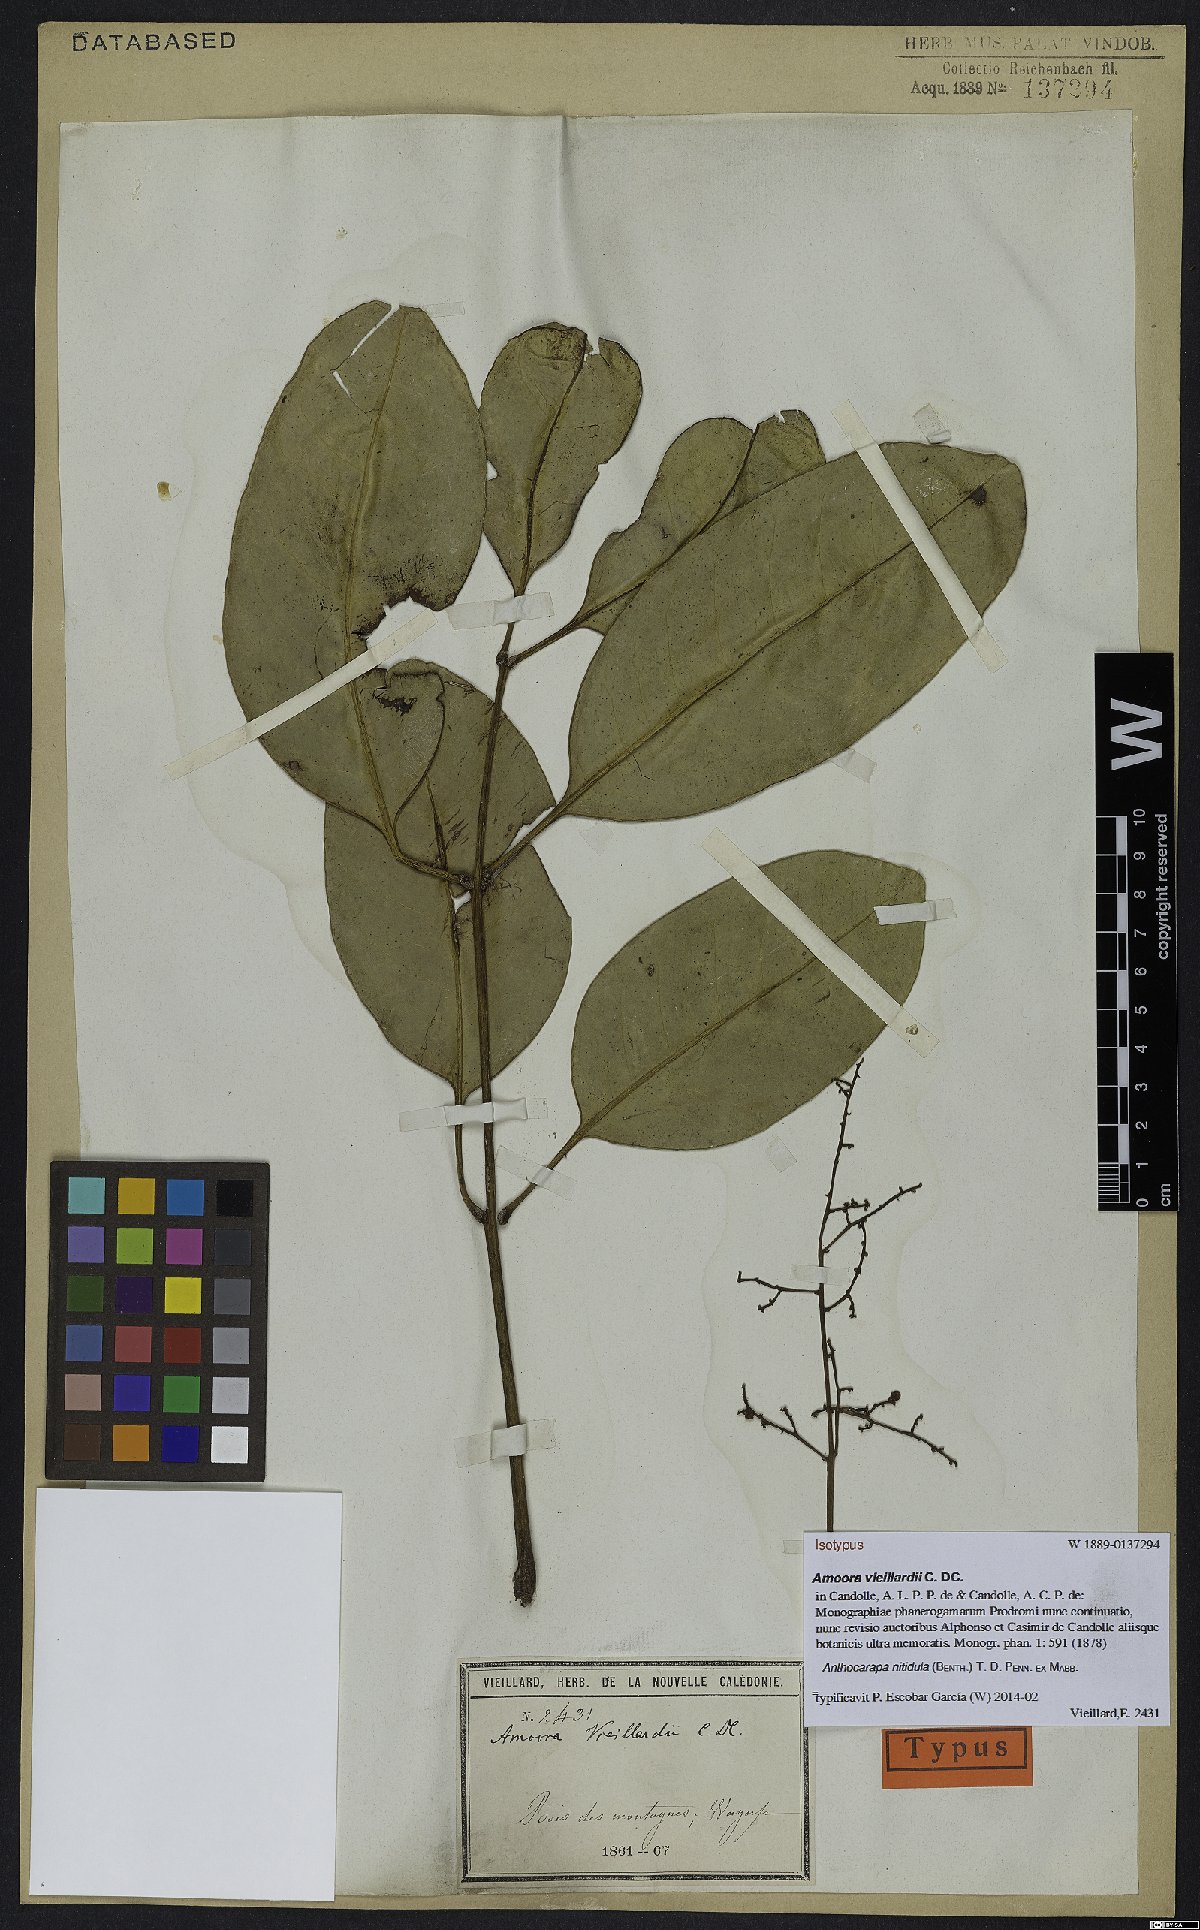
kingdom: Plantae
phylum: Tracheophyta
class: Magnoliopsida
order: Sapindales
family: Meliaceae
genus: Anthocarapa
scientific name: Anthocarapa nitidula
